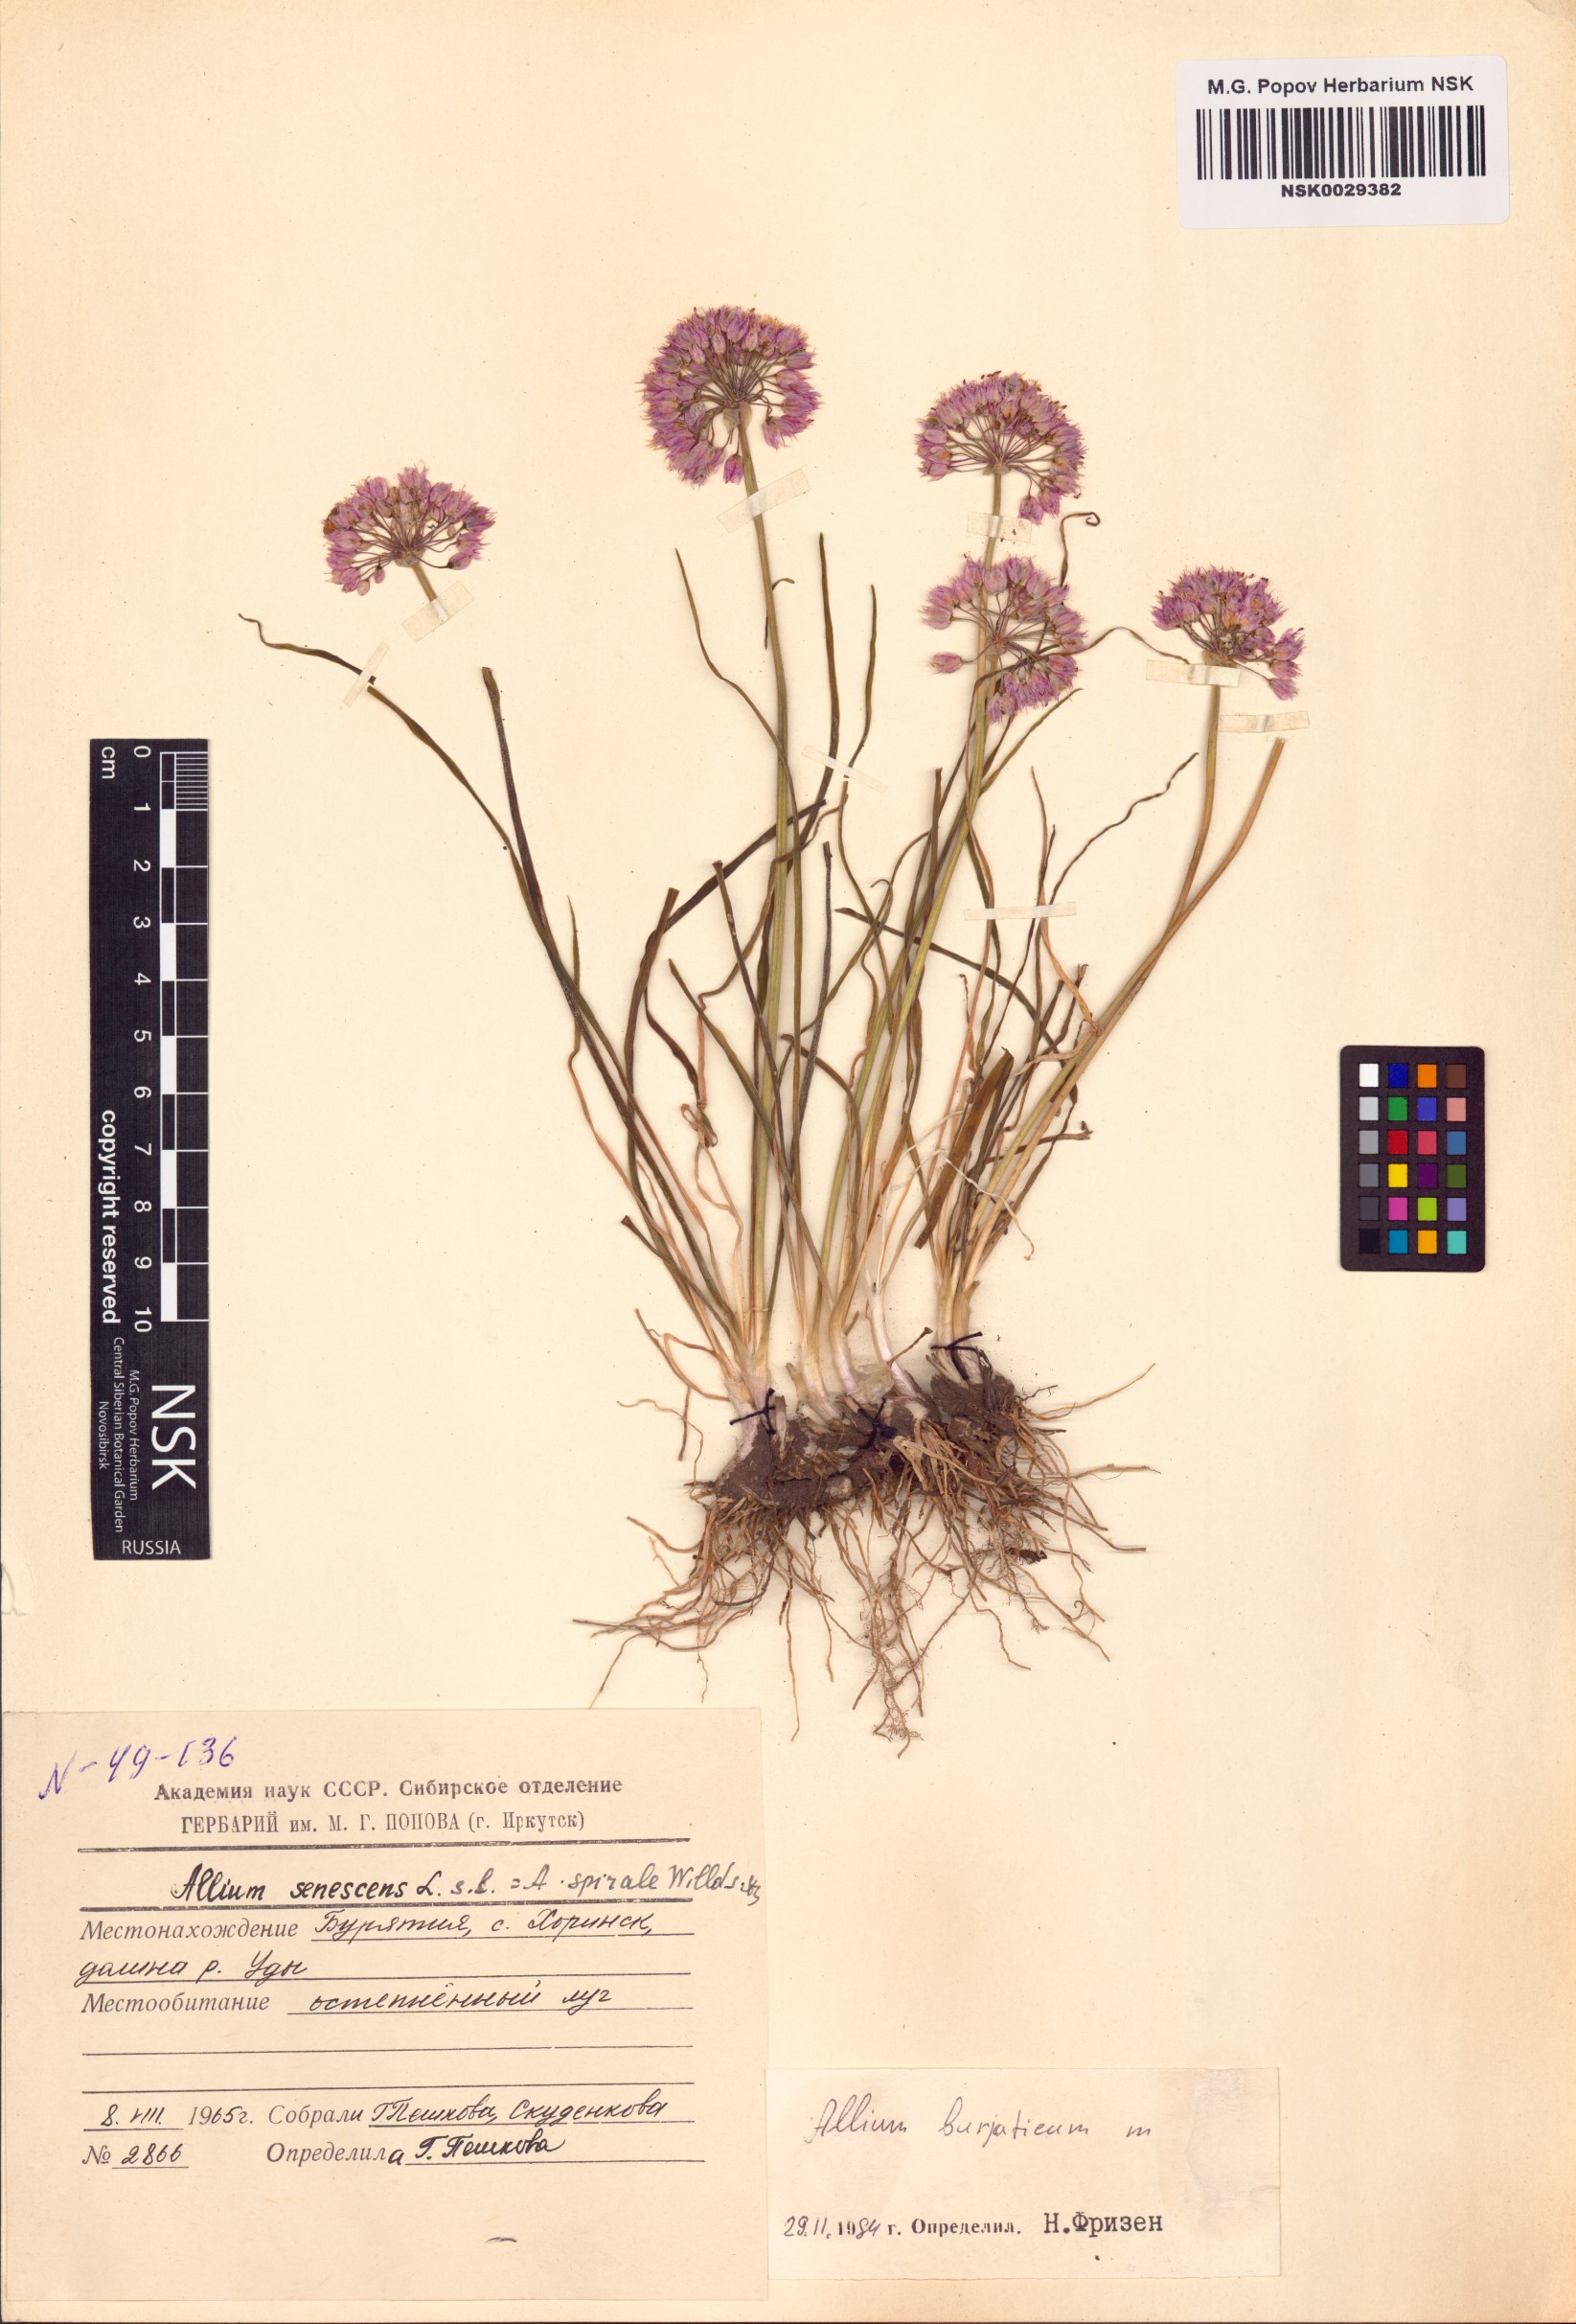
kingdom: Plantae
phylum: Tracheophyta
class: Liliopsida
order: Asparagales
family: Amaryllidaceae
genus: Allium
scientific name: Allium burjaticum
